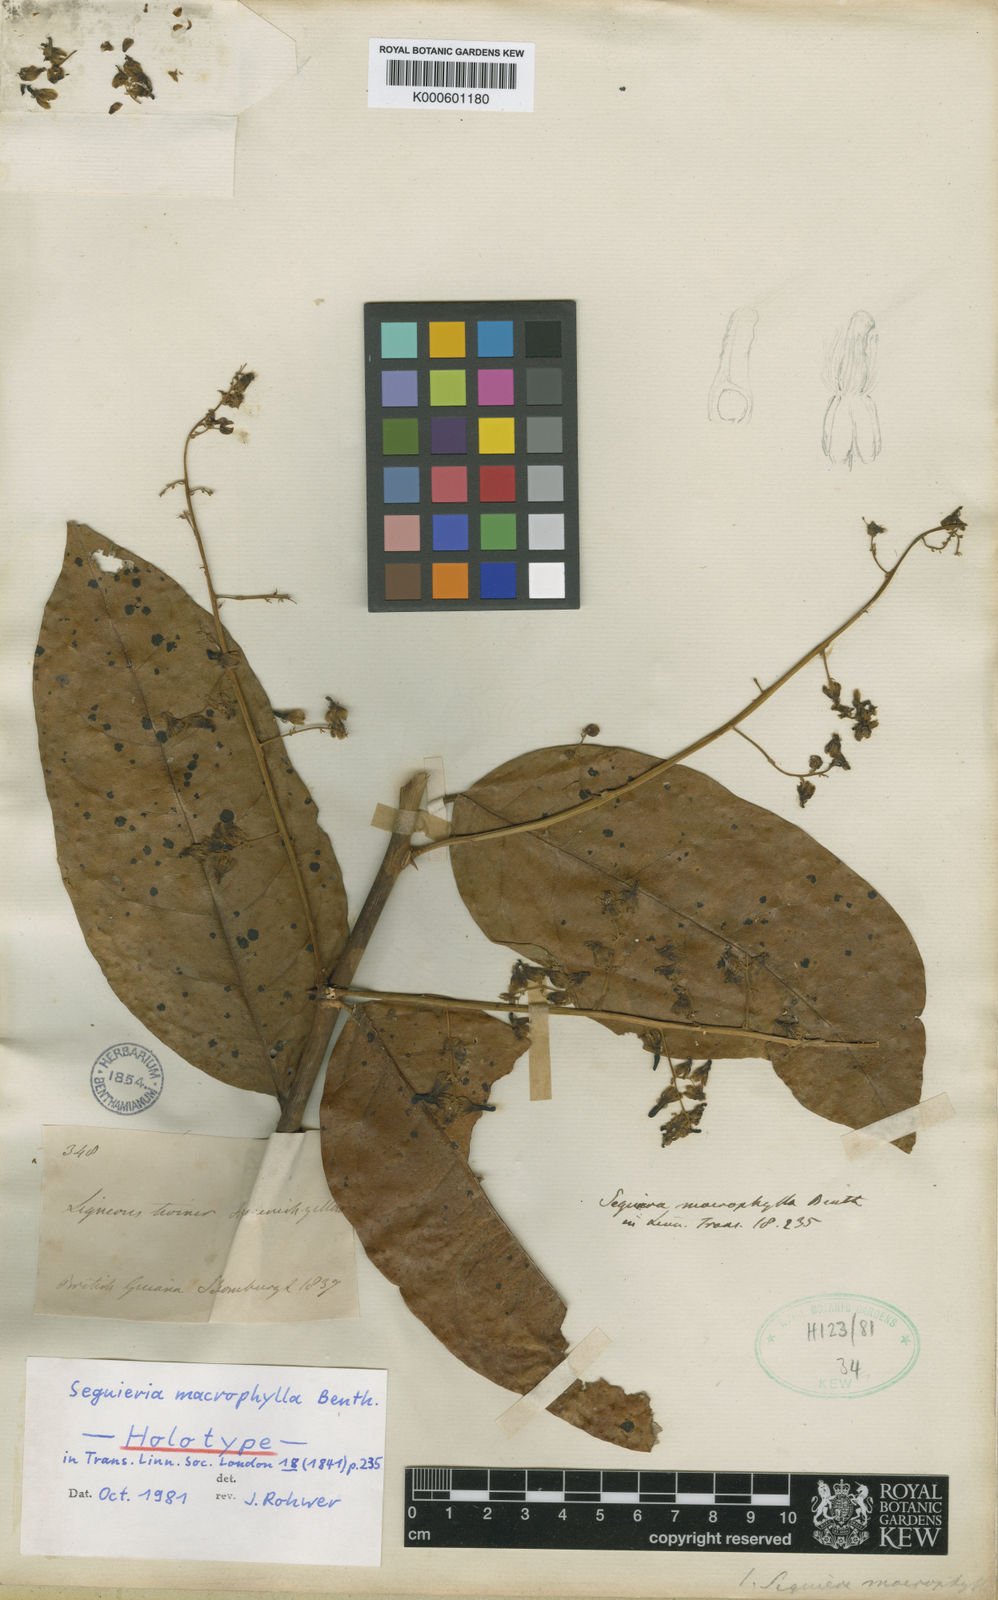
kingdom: Plantae
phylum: Tracheophyta
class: Magnoliopsida
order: Caryophyllales
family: Phytolaccaceae
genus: Seguieria
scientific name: Seguieria macrophylla
